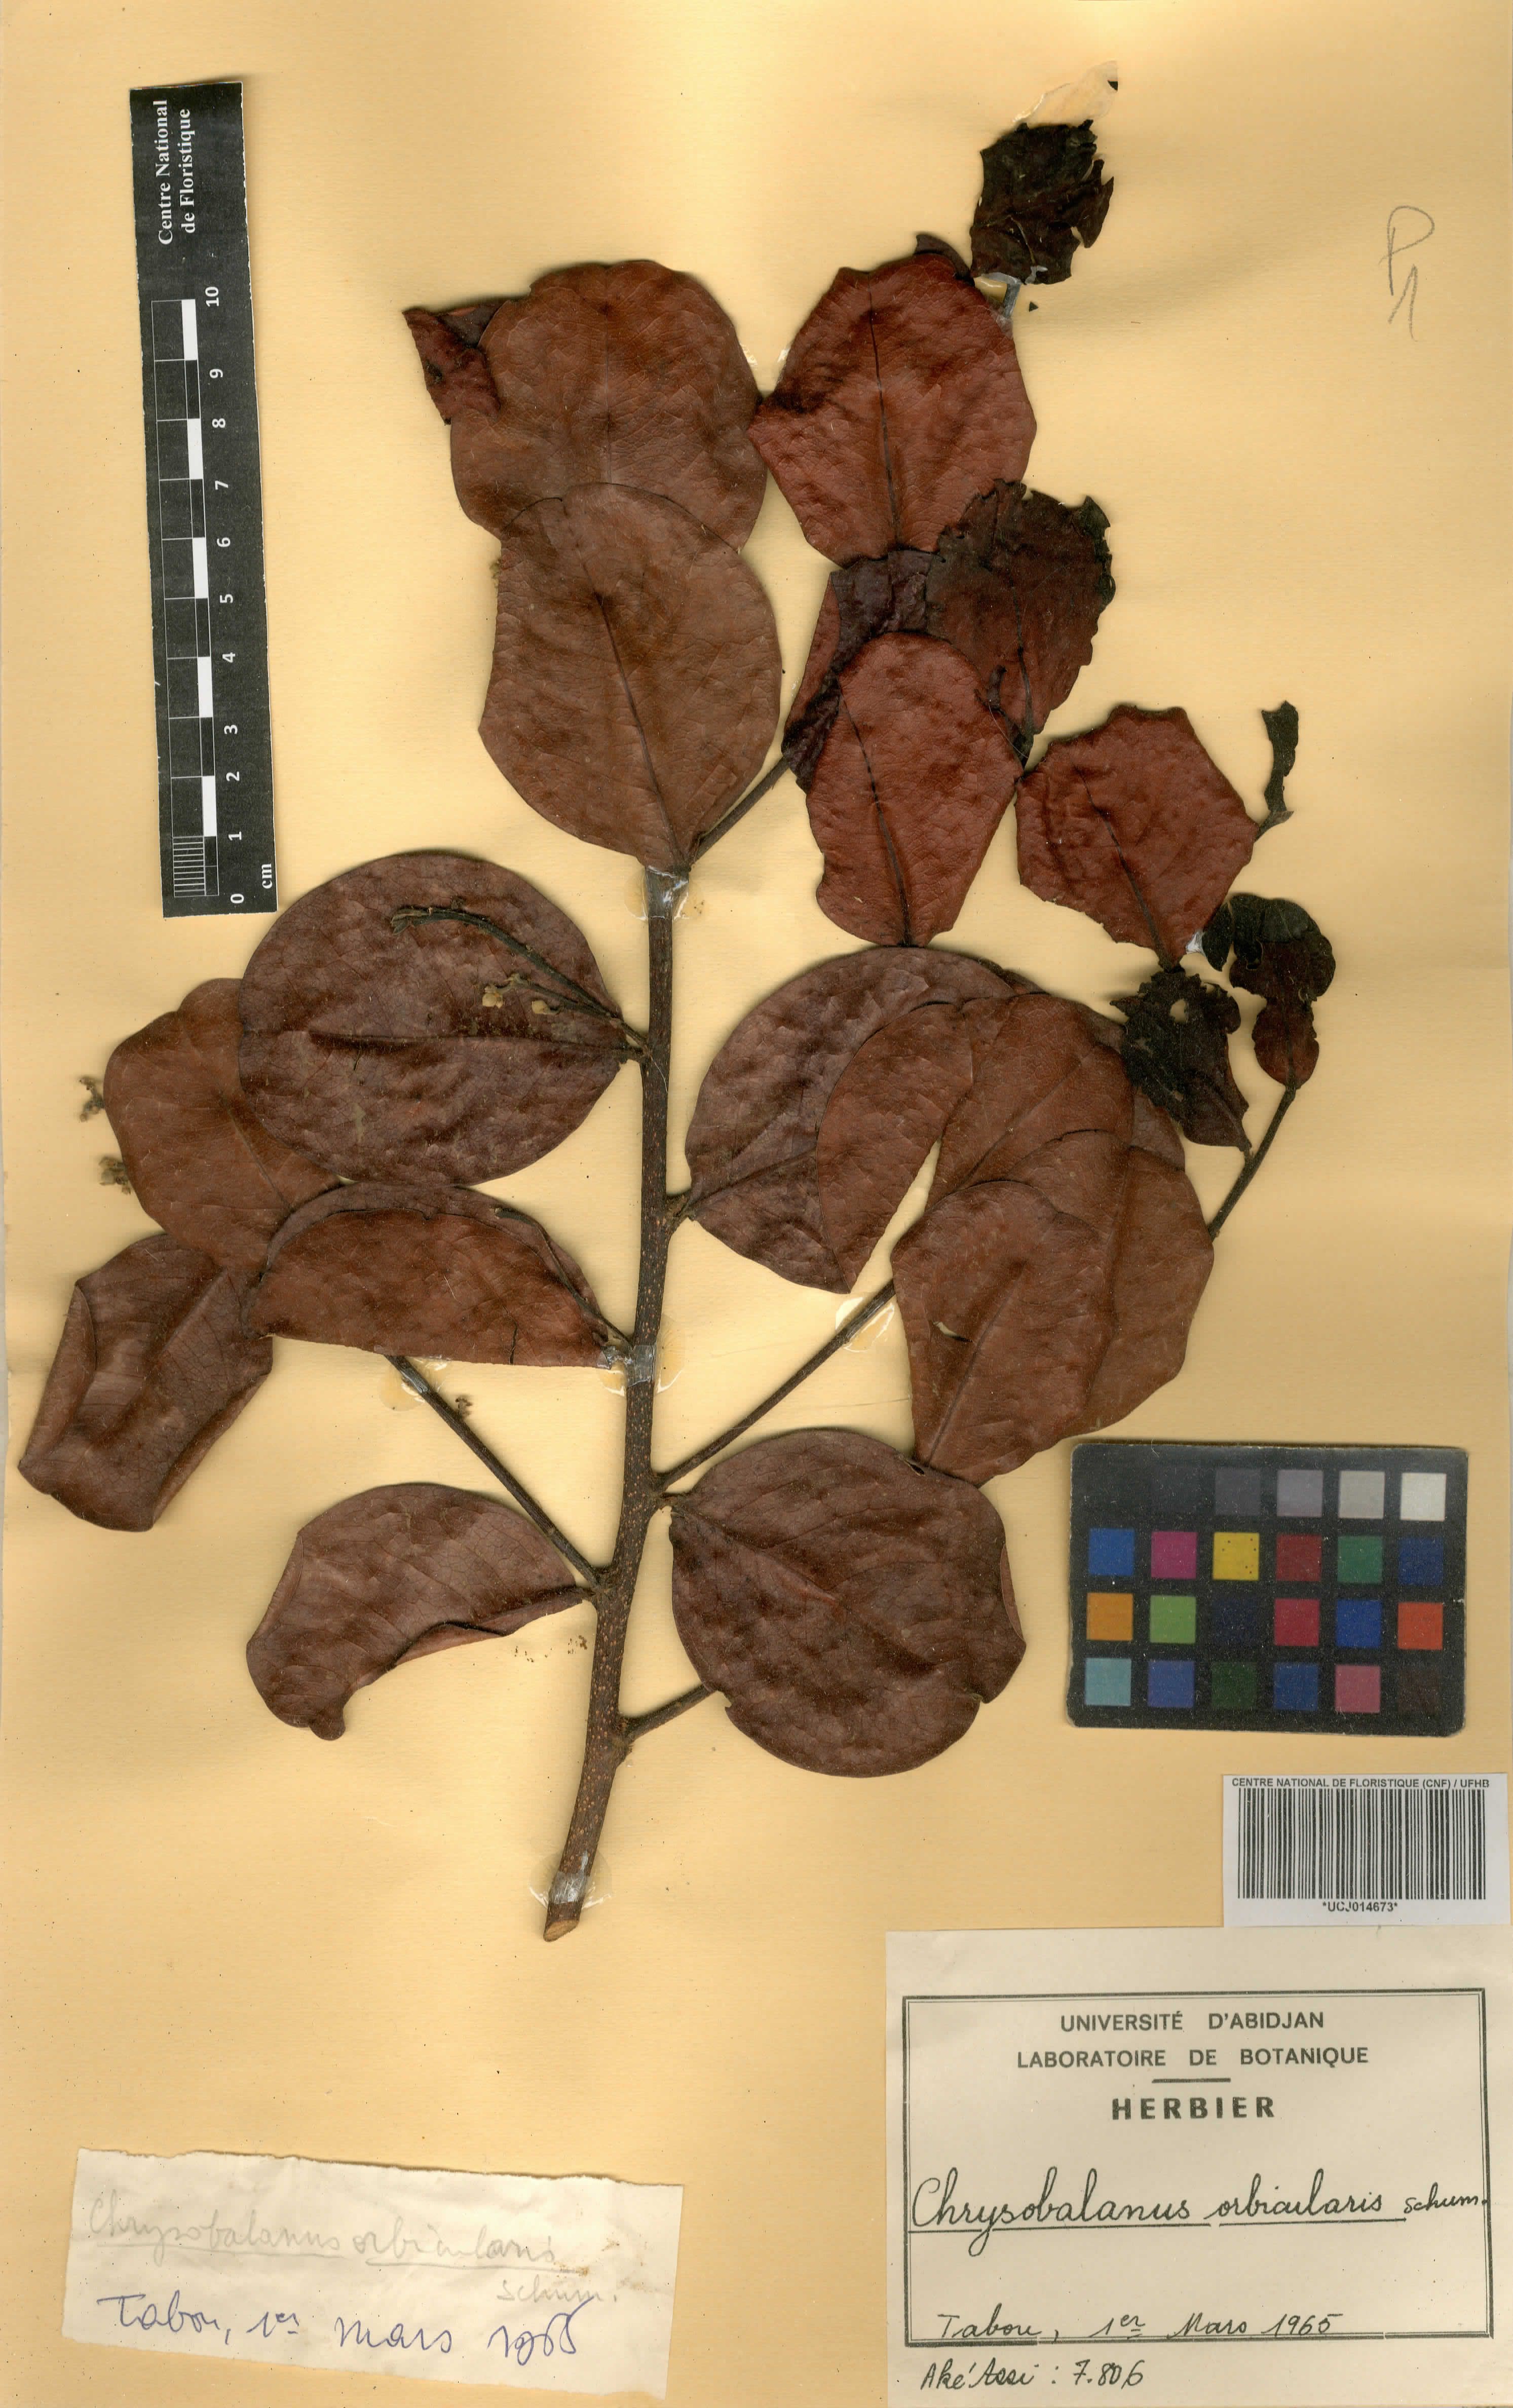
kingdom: Plantae
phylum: Tracheophyta
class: Magnoliopsida
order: Malpighiales
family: Chrysobalanaceae
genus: Chrysobalanus
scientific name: Chrysobalanus icaco
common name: Coco plum
